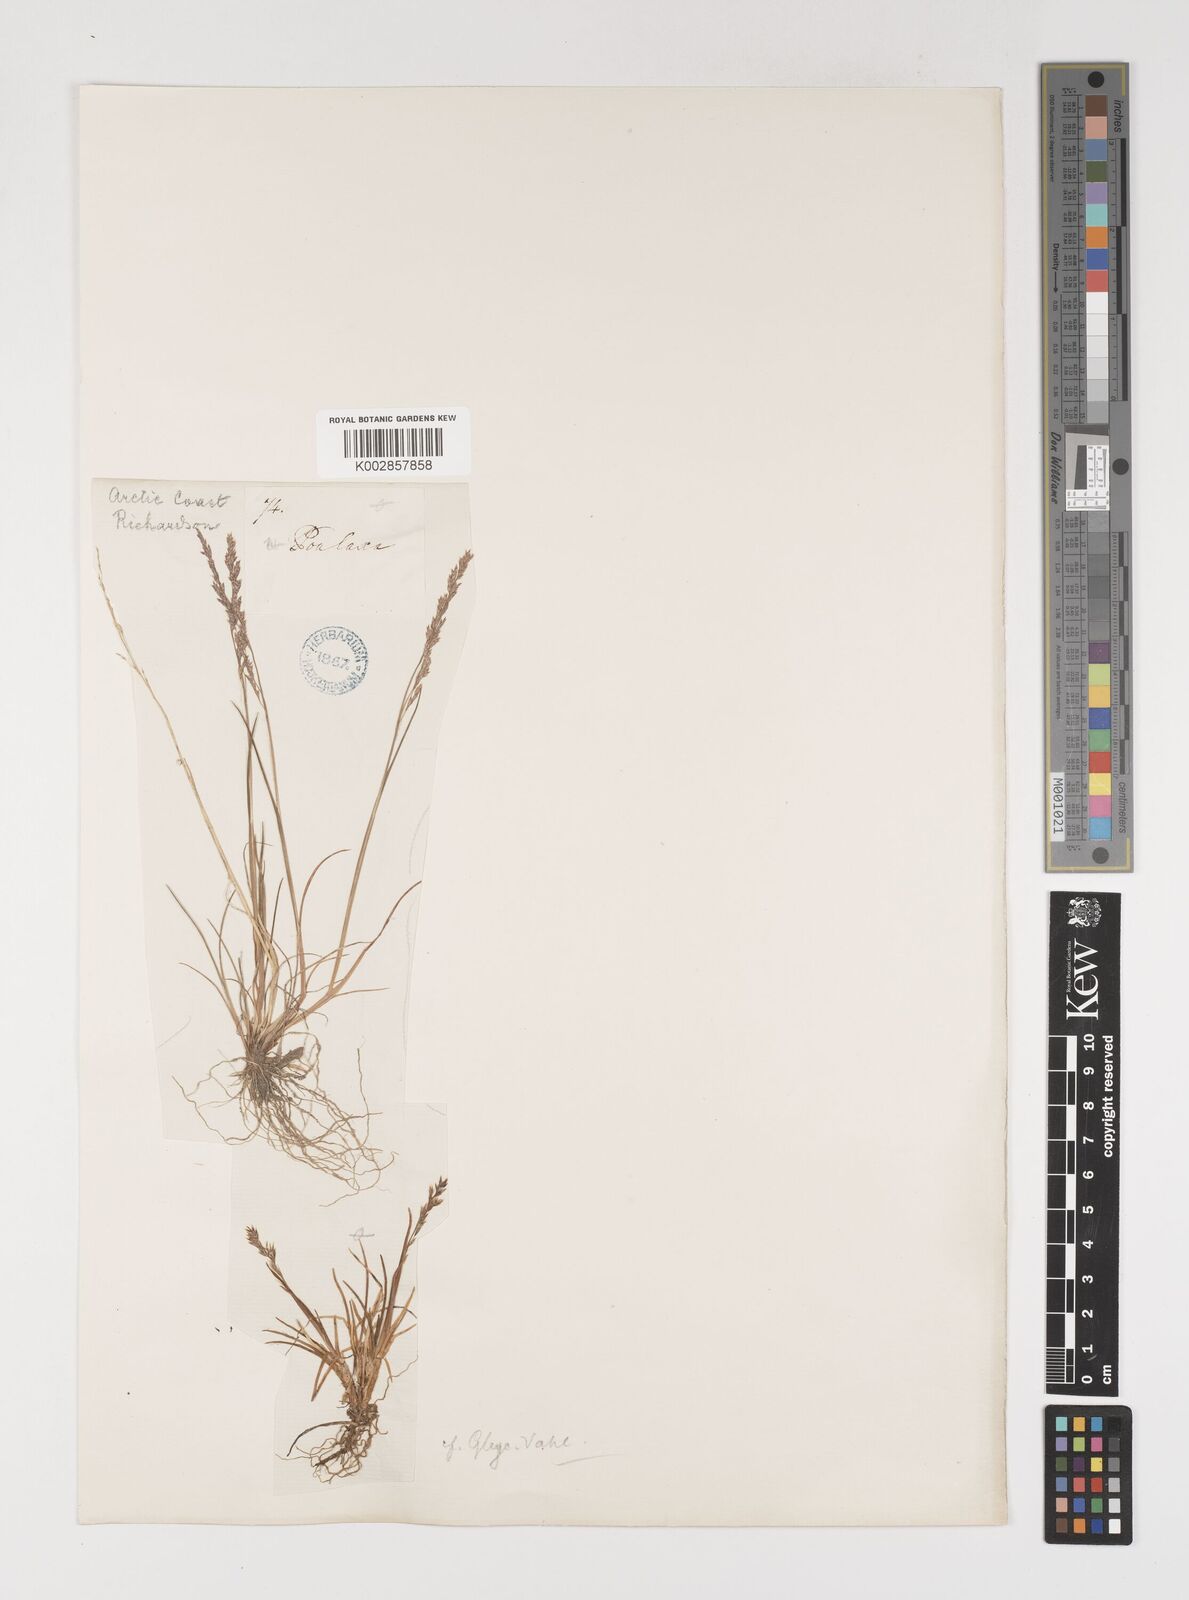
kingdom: Plantae
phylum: Tracheophyta
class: Liliopsida
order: Poales
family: Poaceae
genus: Puccinellia
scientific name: Puccinellia vahliana
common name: Vahl's alkaligrass
